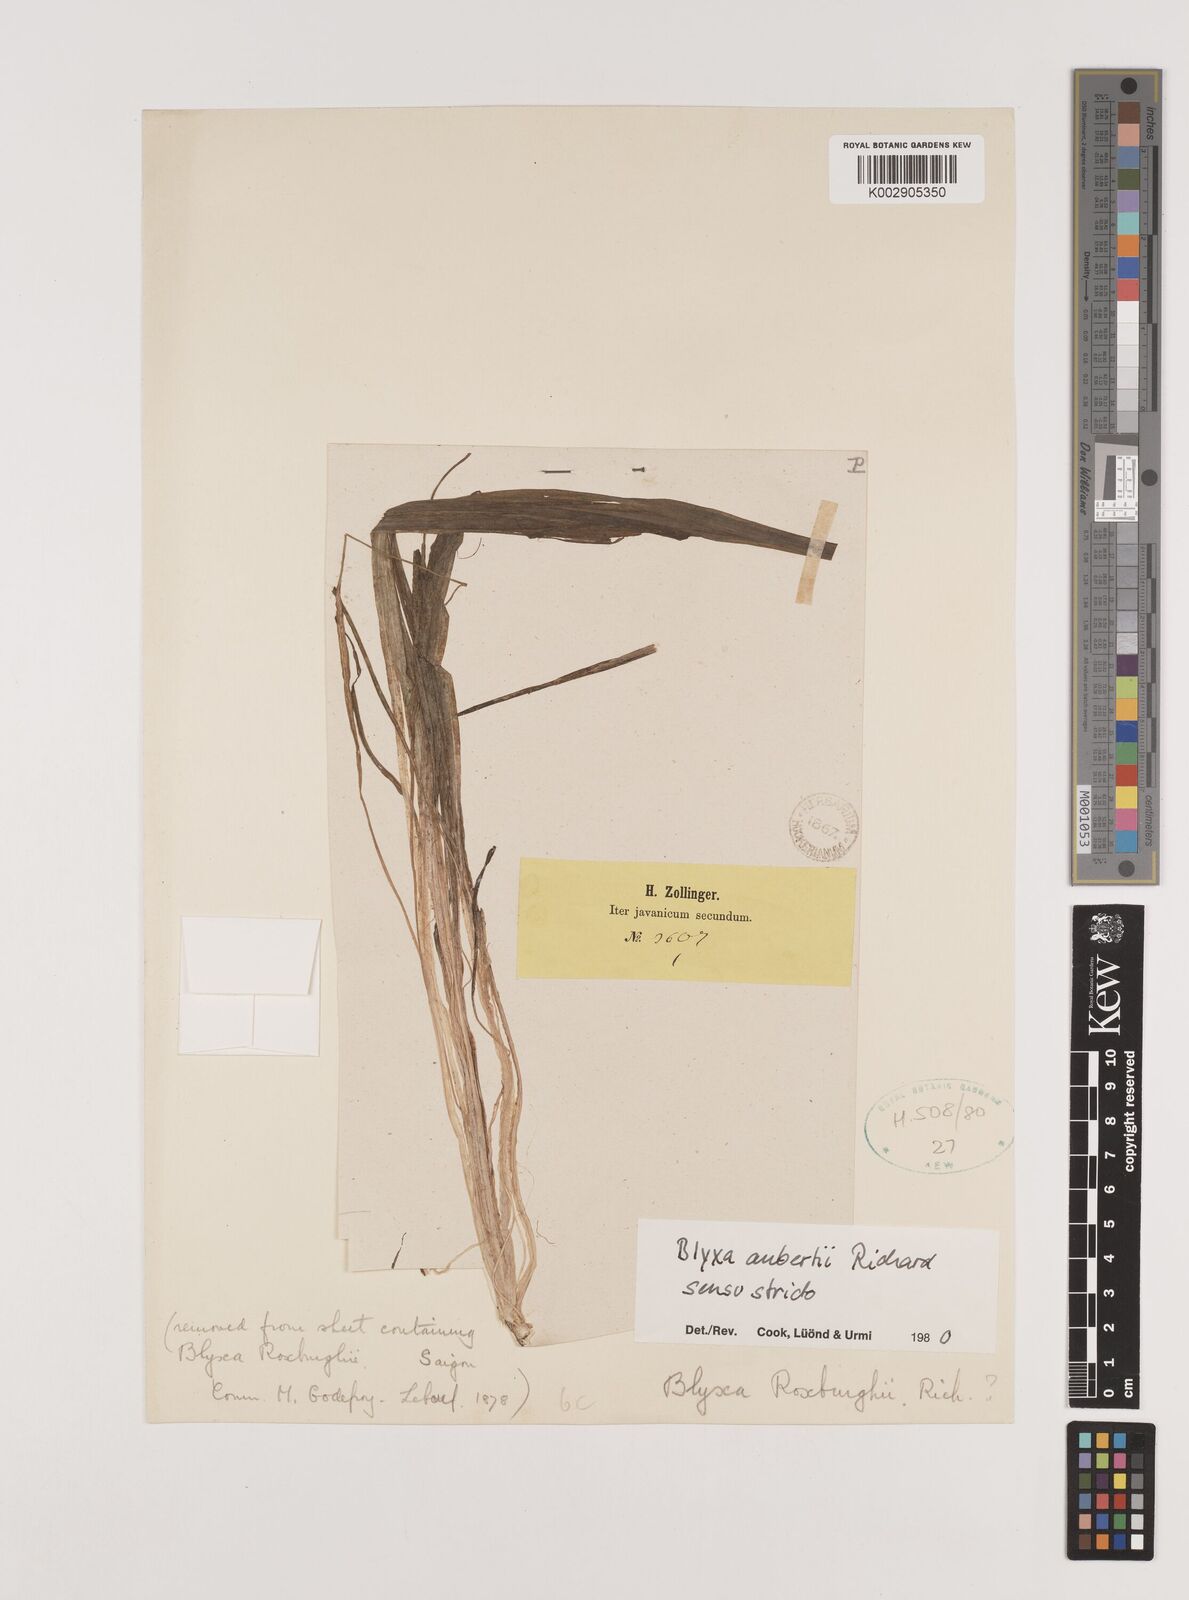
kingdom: Plantae
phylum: Tracheophyta
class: Liliopsida
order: Alismatales
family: Hydrocharitaceae
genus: Blyxa
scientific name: Blyxa aubertii
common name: Roundfruit blyxa
